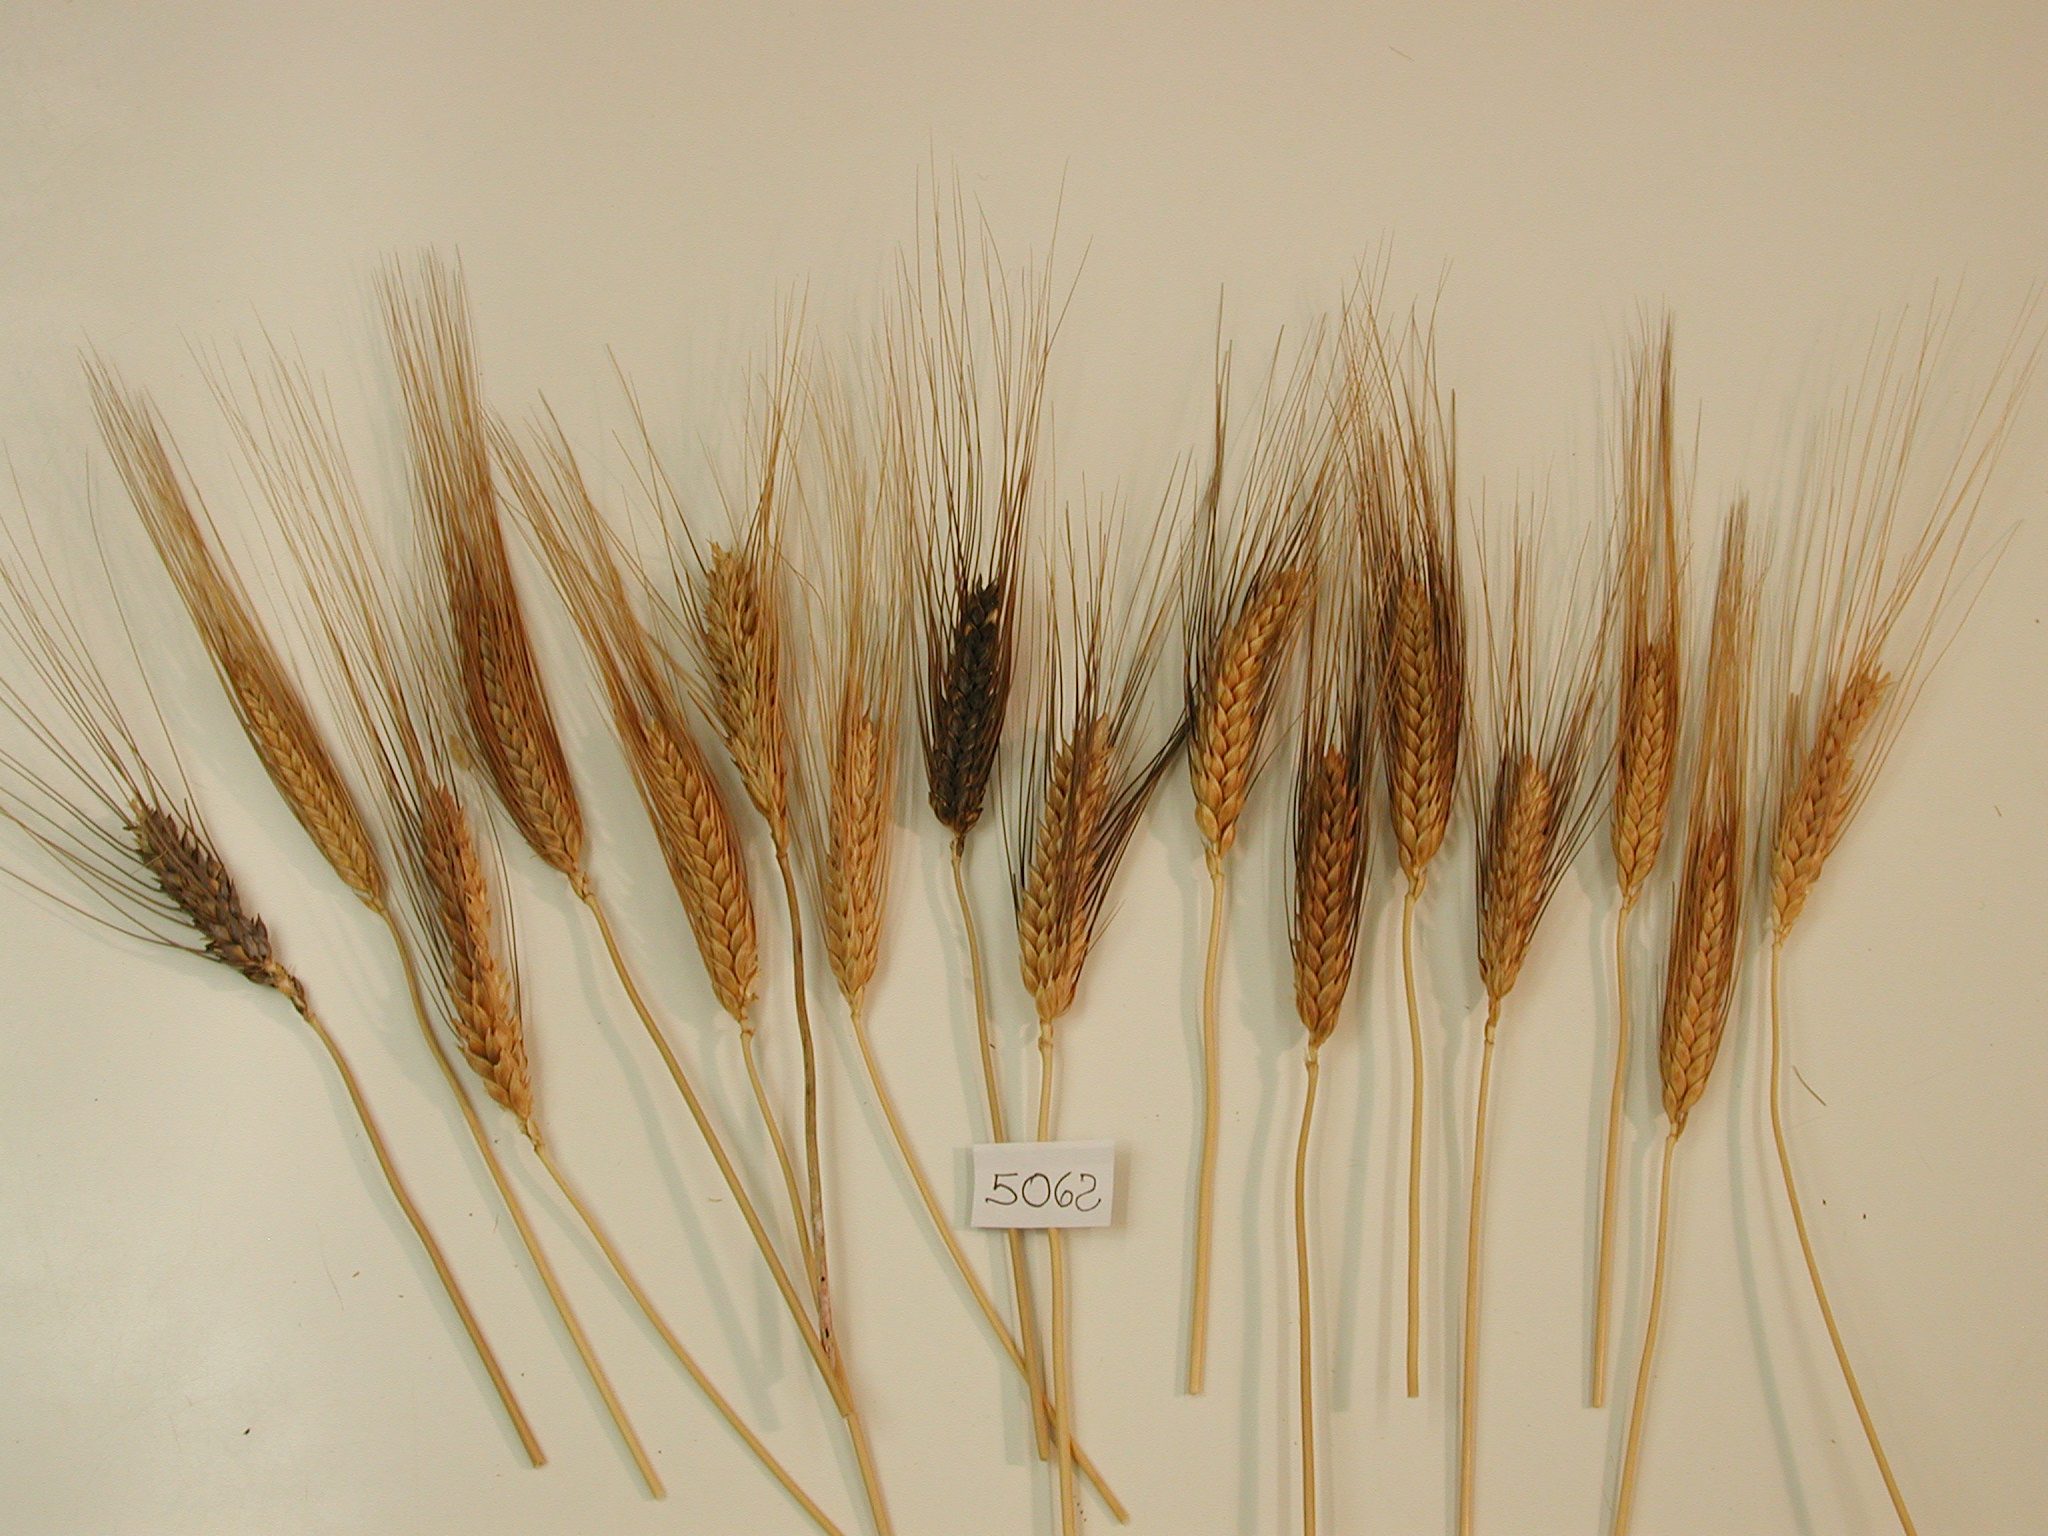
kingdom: Plantae
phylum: Tracheophyta
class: Liliopsida
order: Poales
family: Poaceae
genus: Triticum
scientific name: Triticum turgidum
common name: Wheat
